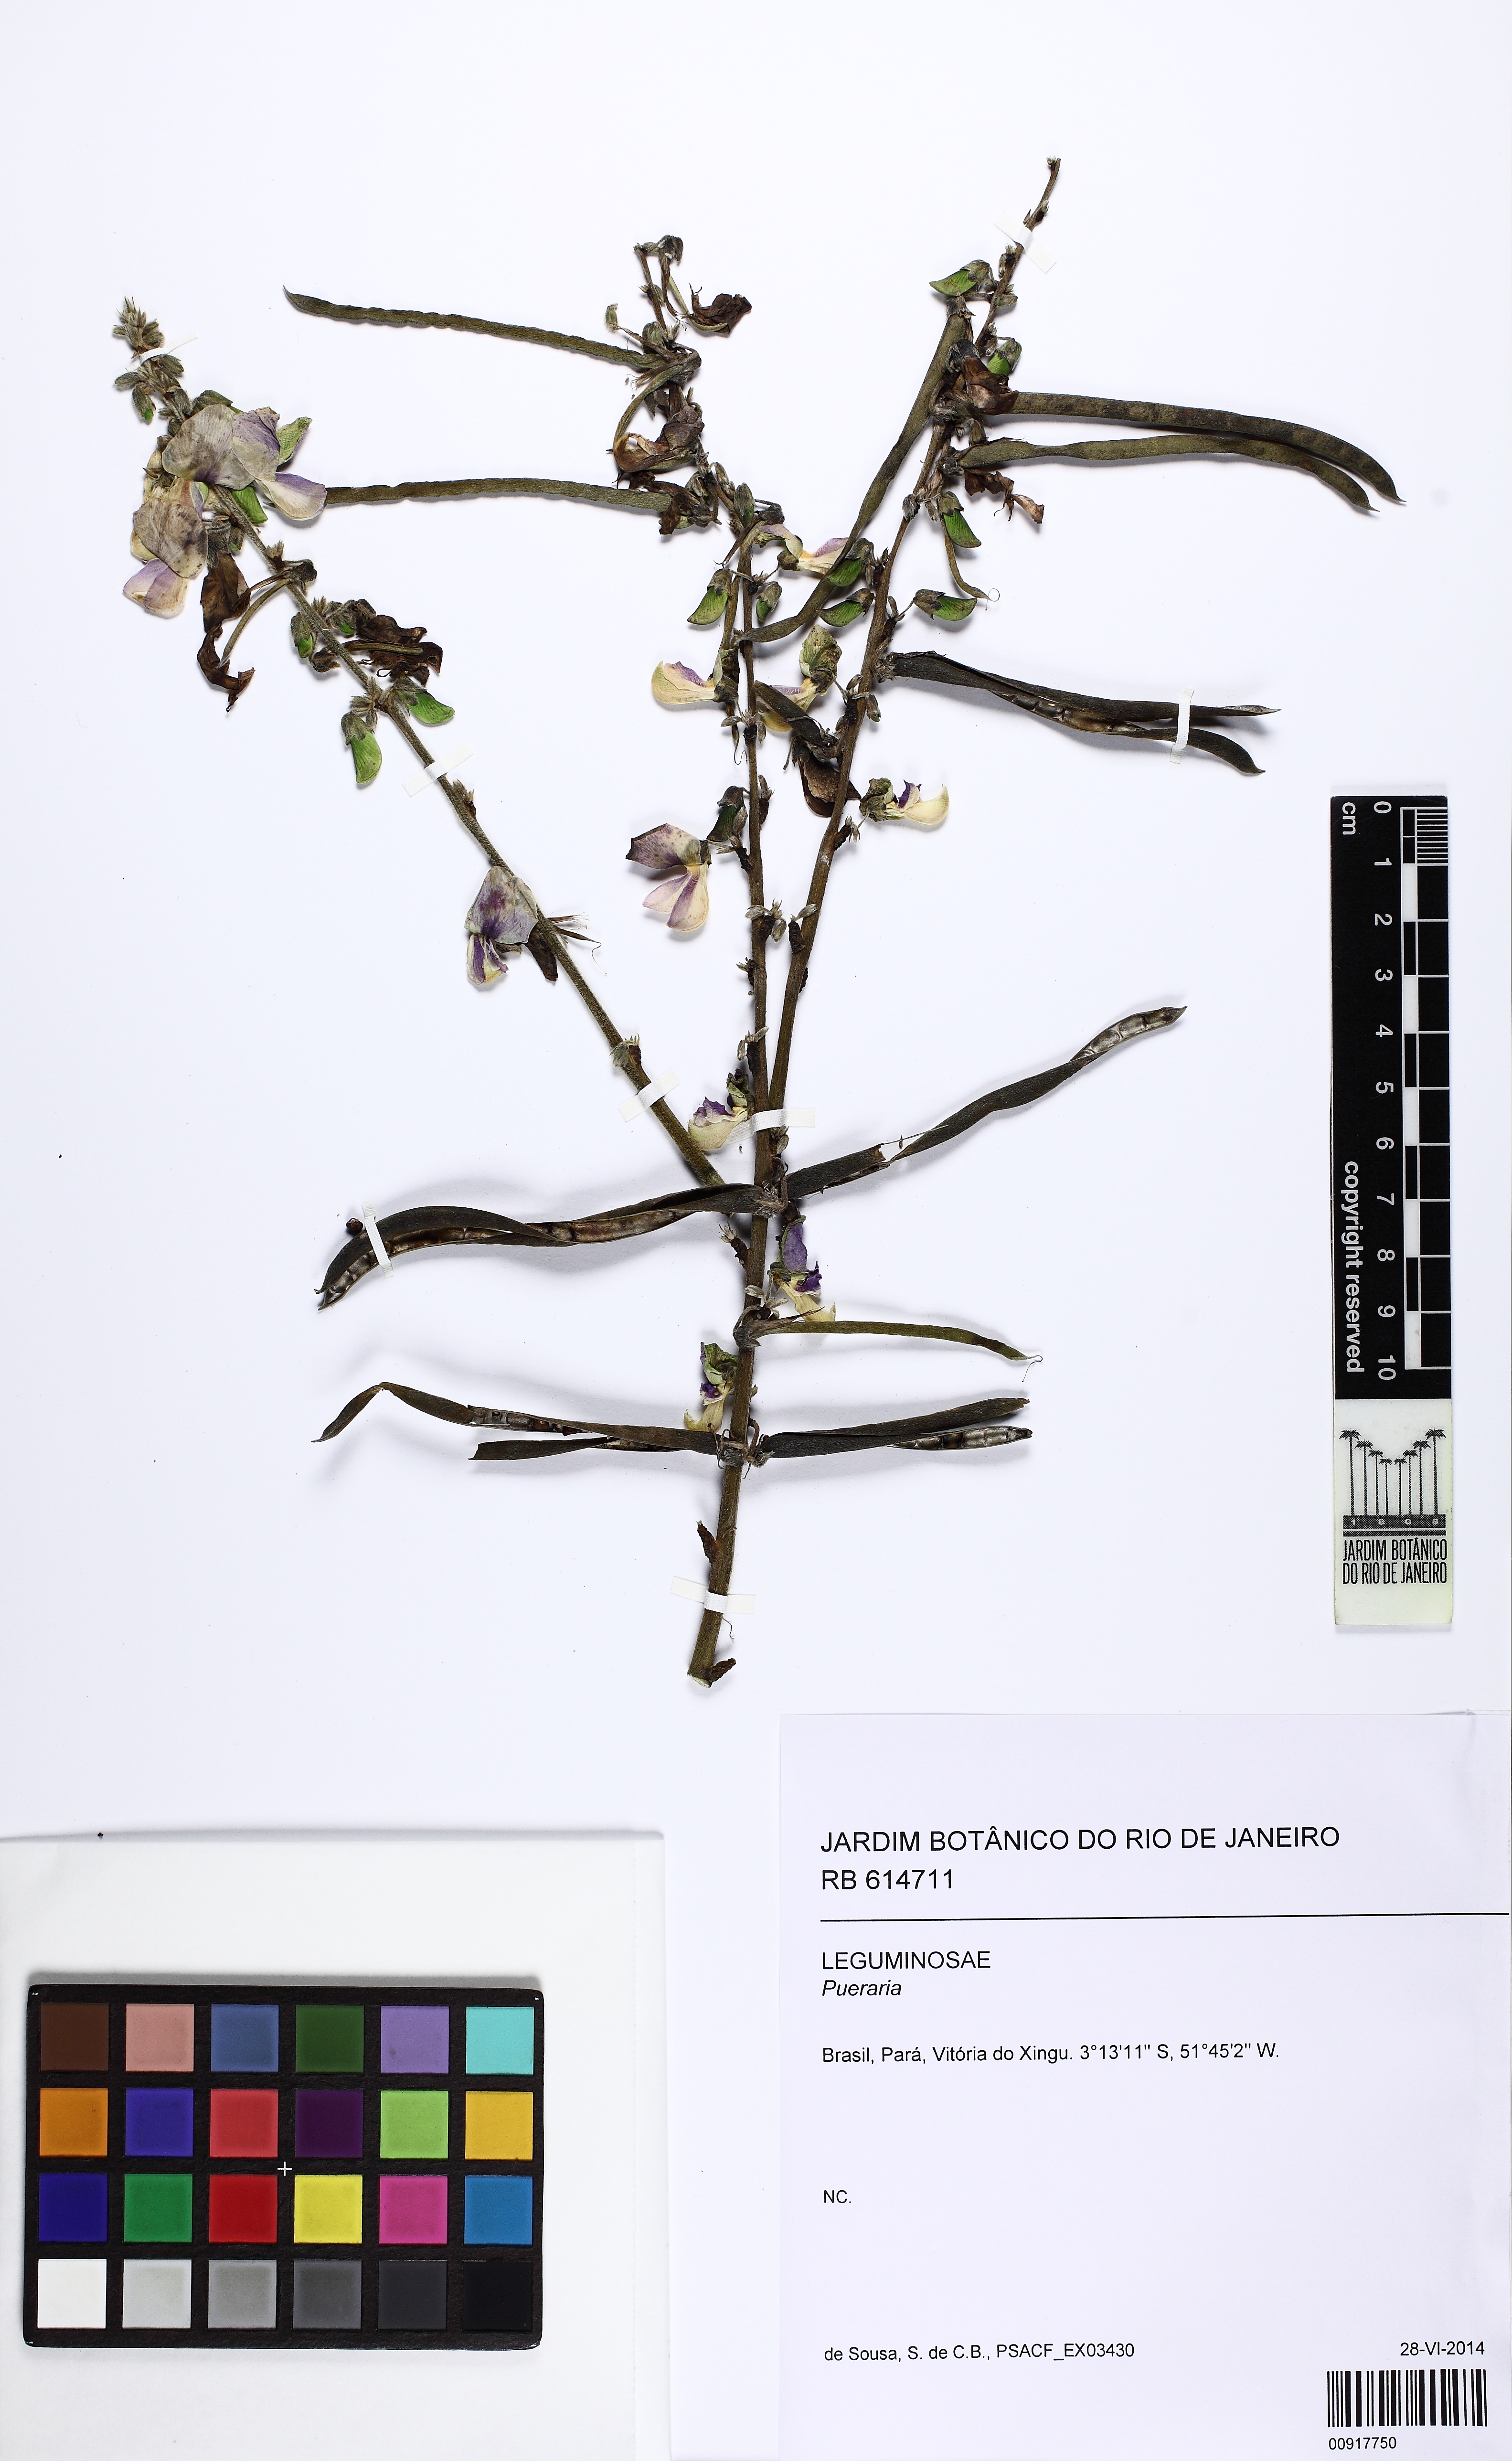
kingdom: Plantae
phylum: Tracheophyta
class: Magnoliopsida
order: Fabales
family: Fabaceae
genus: Pueraria
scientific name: Pueraria
